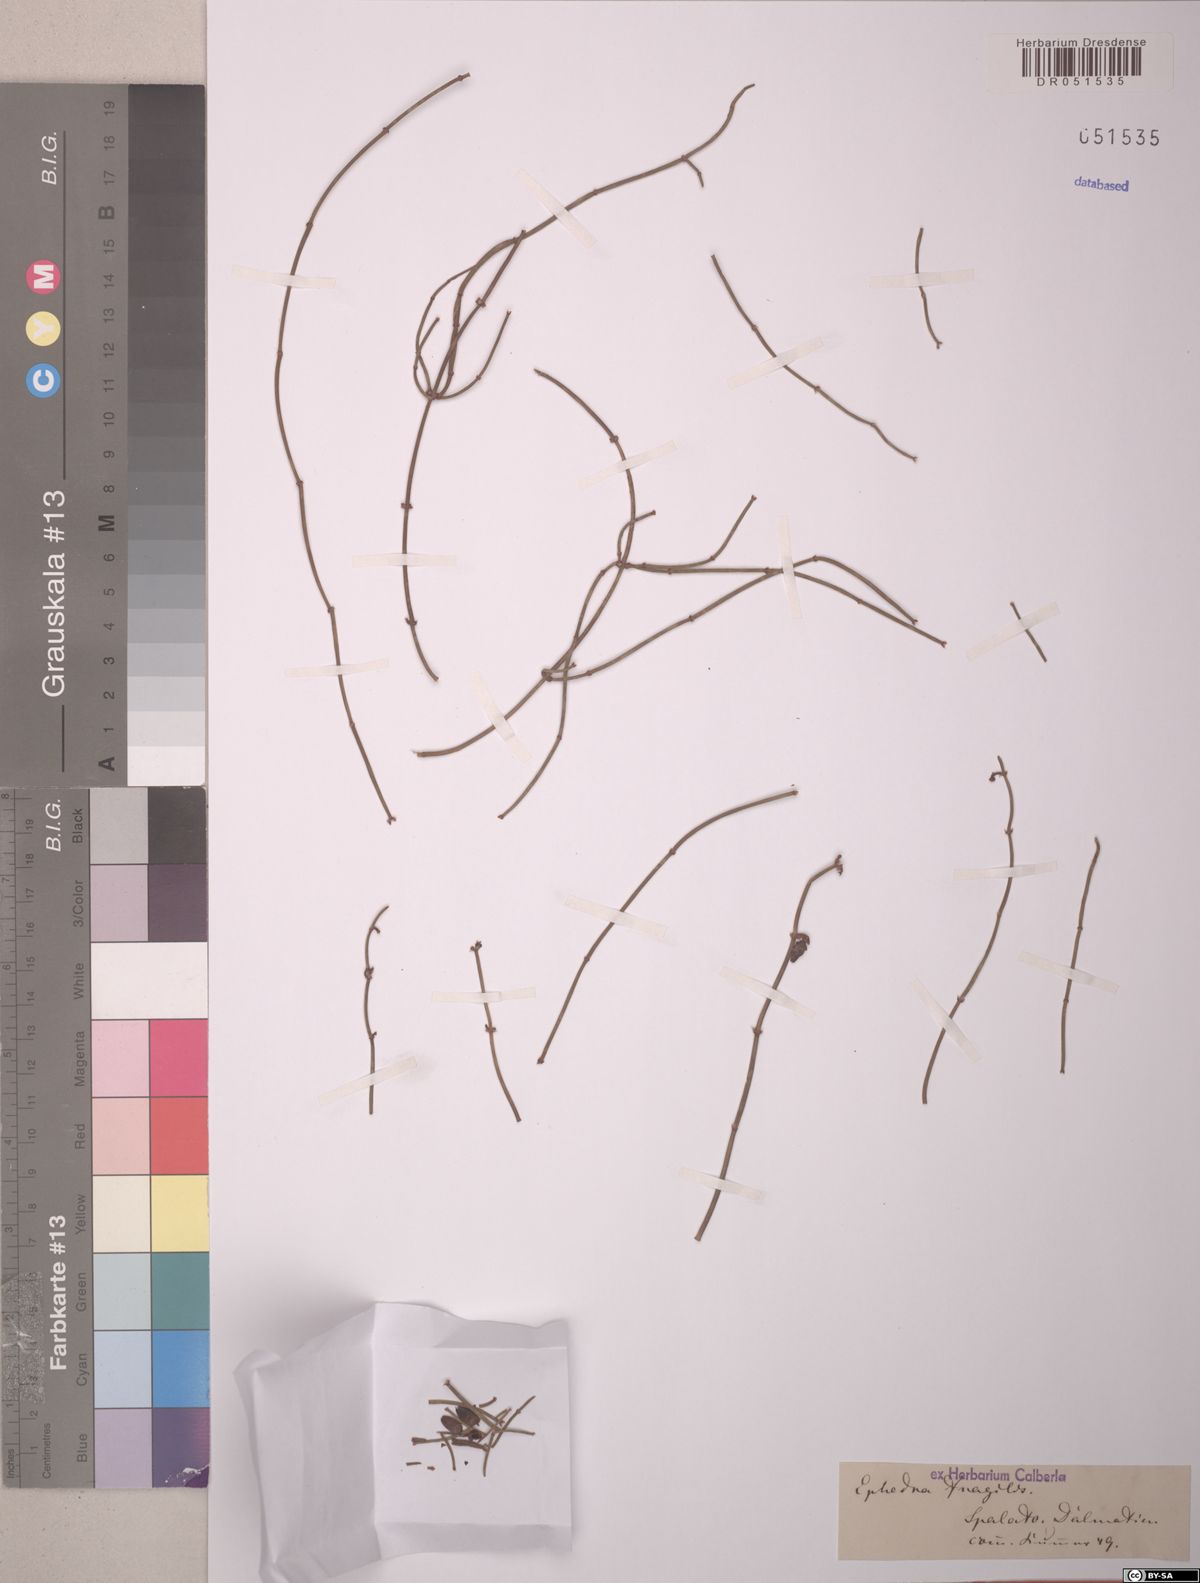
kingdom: Plantae
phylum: Tracheophyta
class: Gnetopsida
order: Ephedrales
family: Ephedraceae
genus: Ephedra
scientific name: Ephedra fragilis
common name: Joint pine
